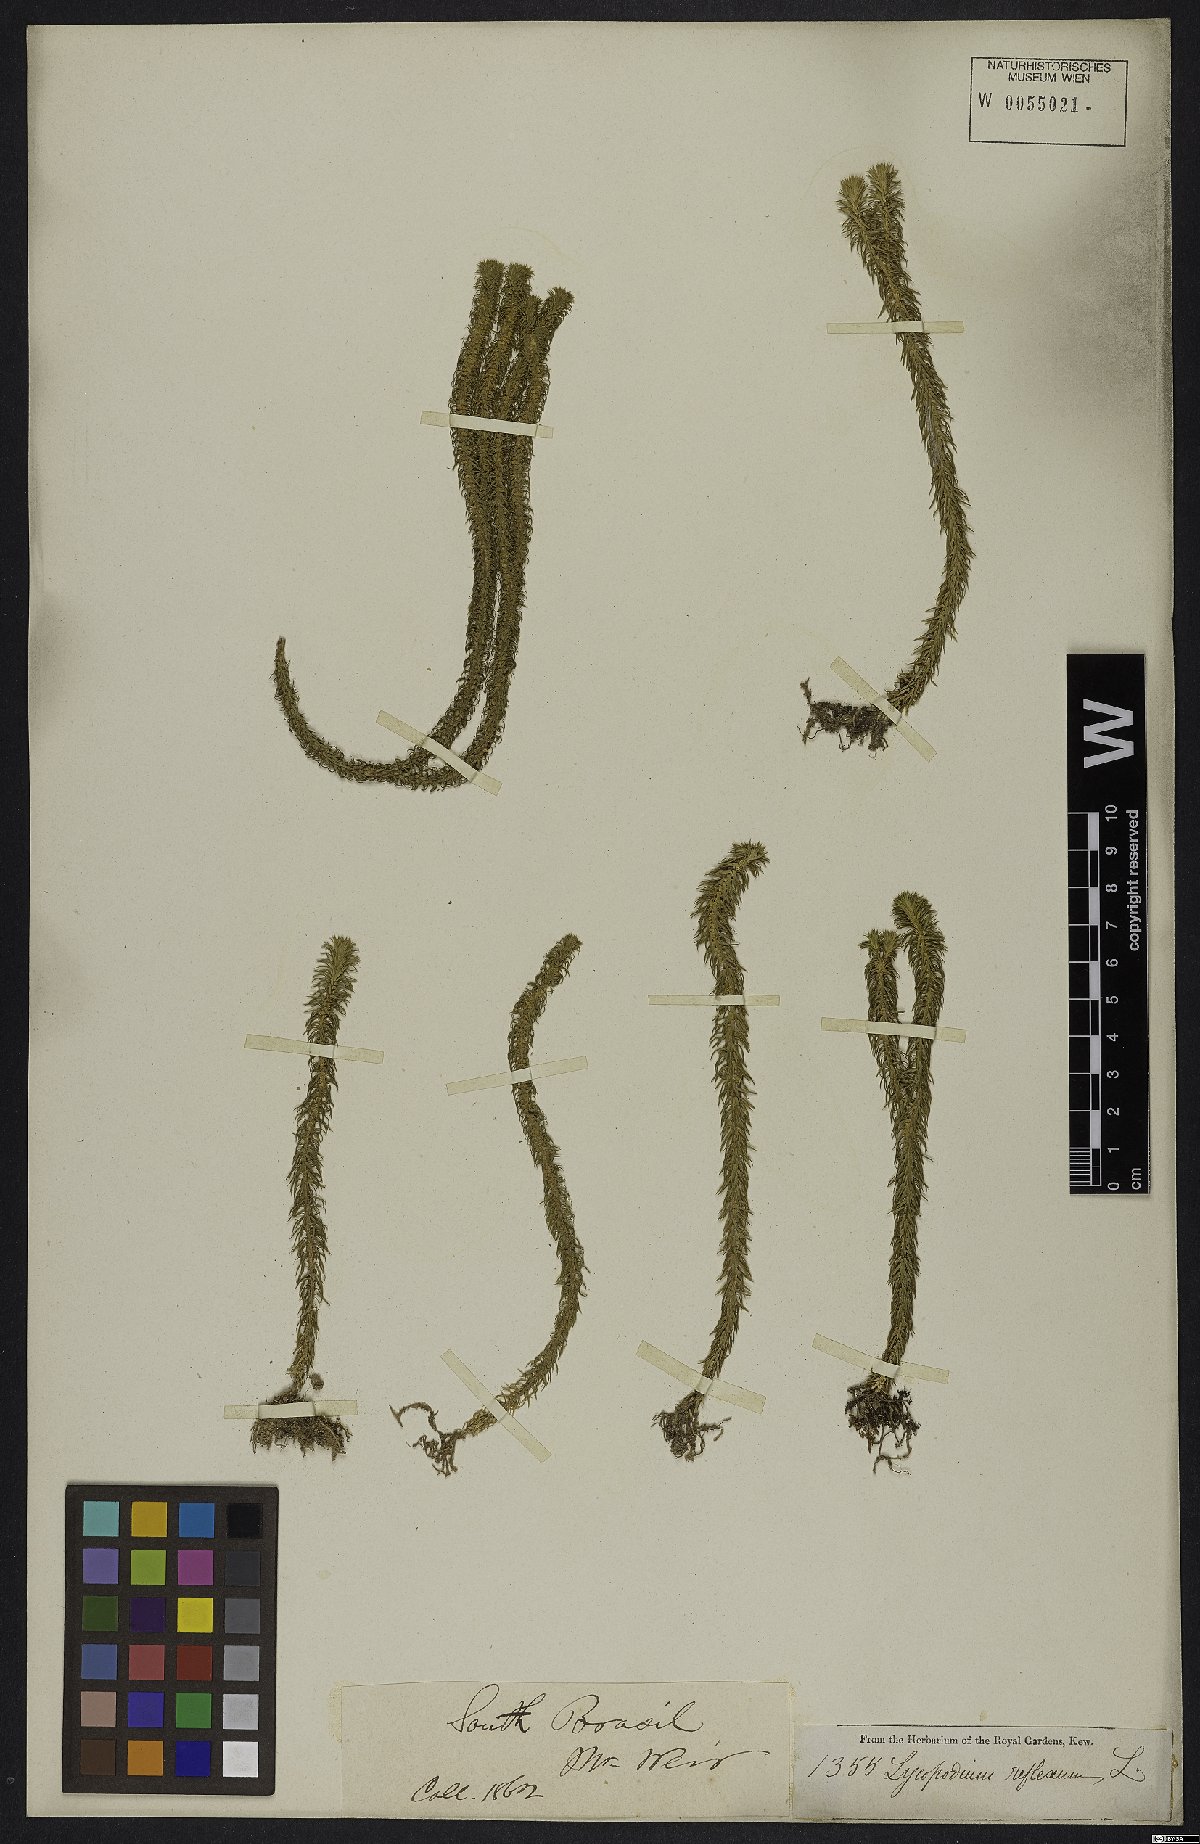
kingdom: Plantae
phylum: Tracheophyta
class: Lycopodiopsida
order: Lycopodiales
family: Lycopodiaceae
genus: Phlegmariurus
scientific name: Phlegmariurus reflexus
